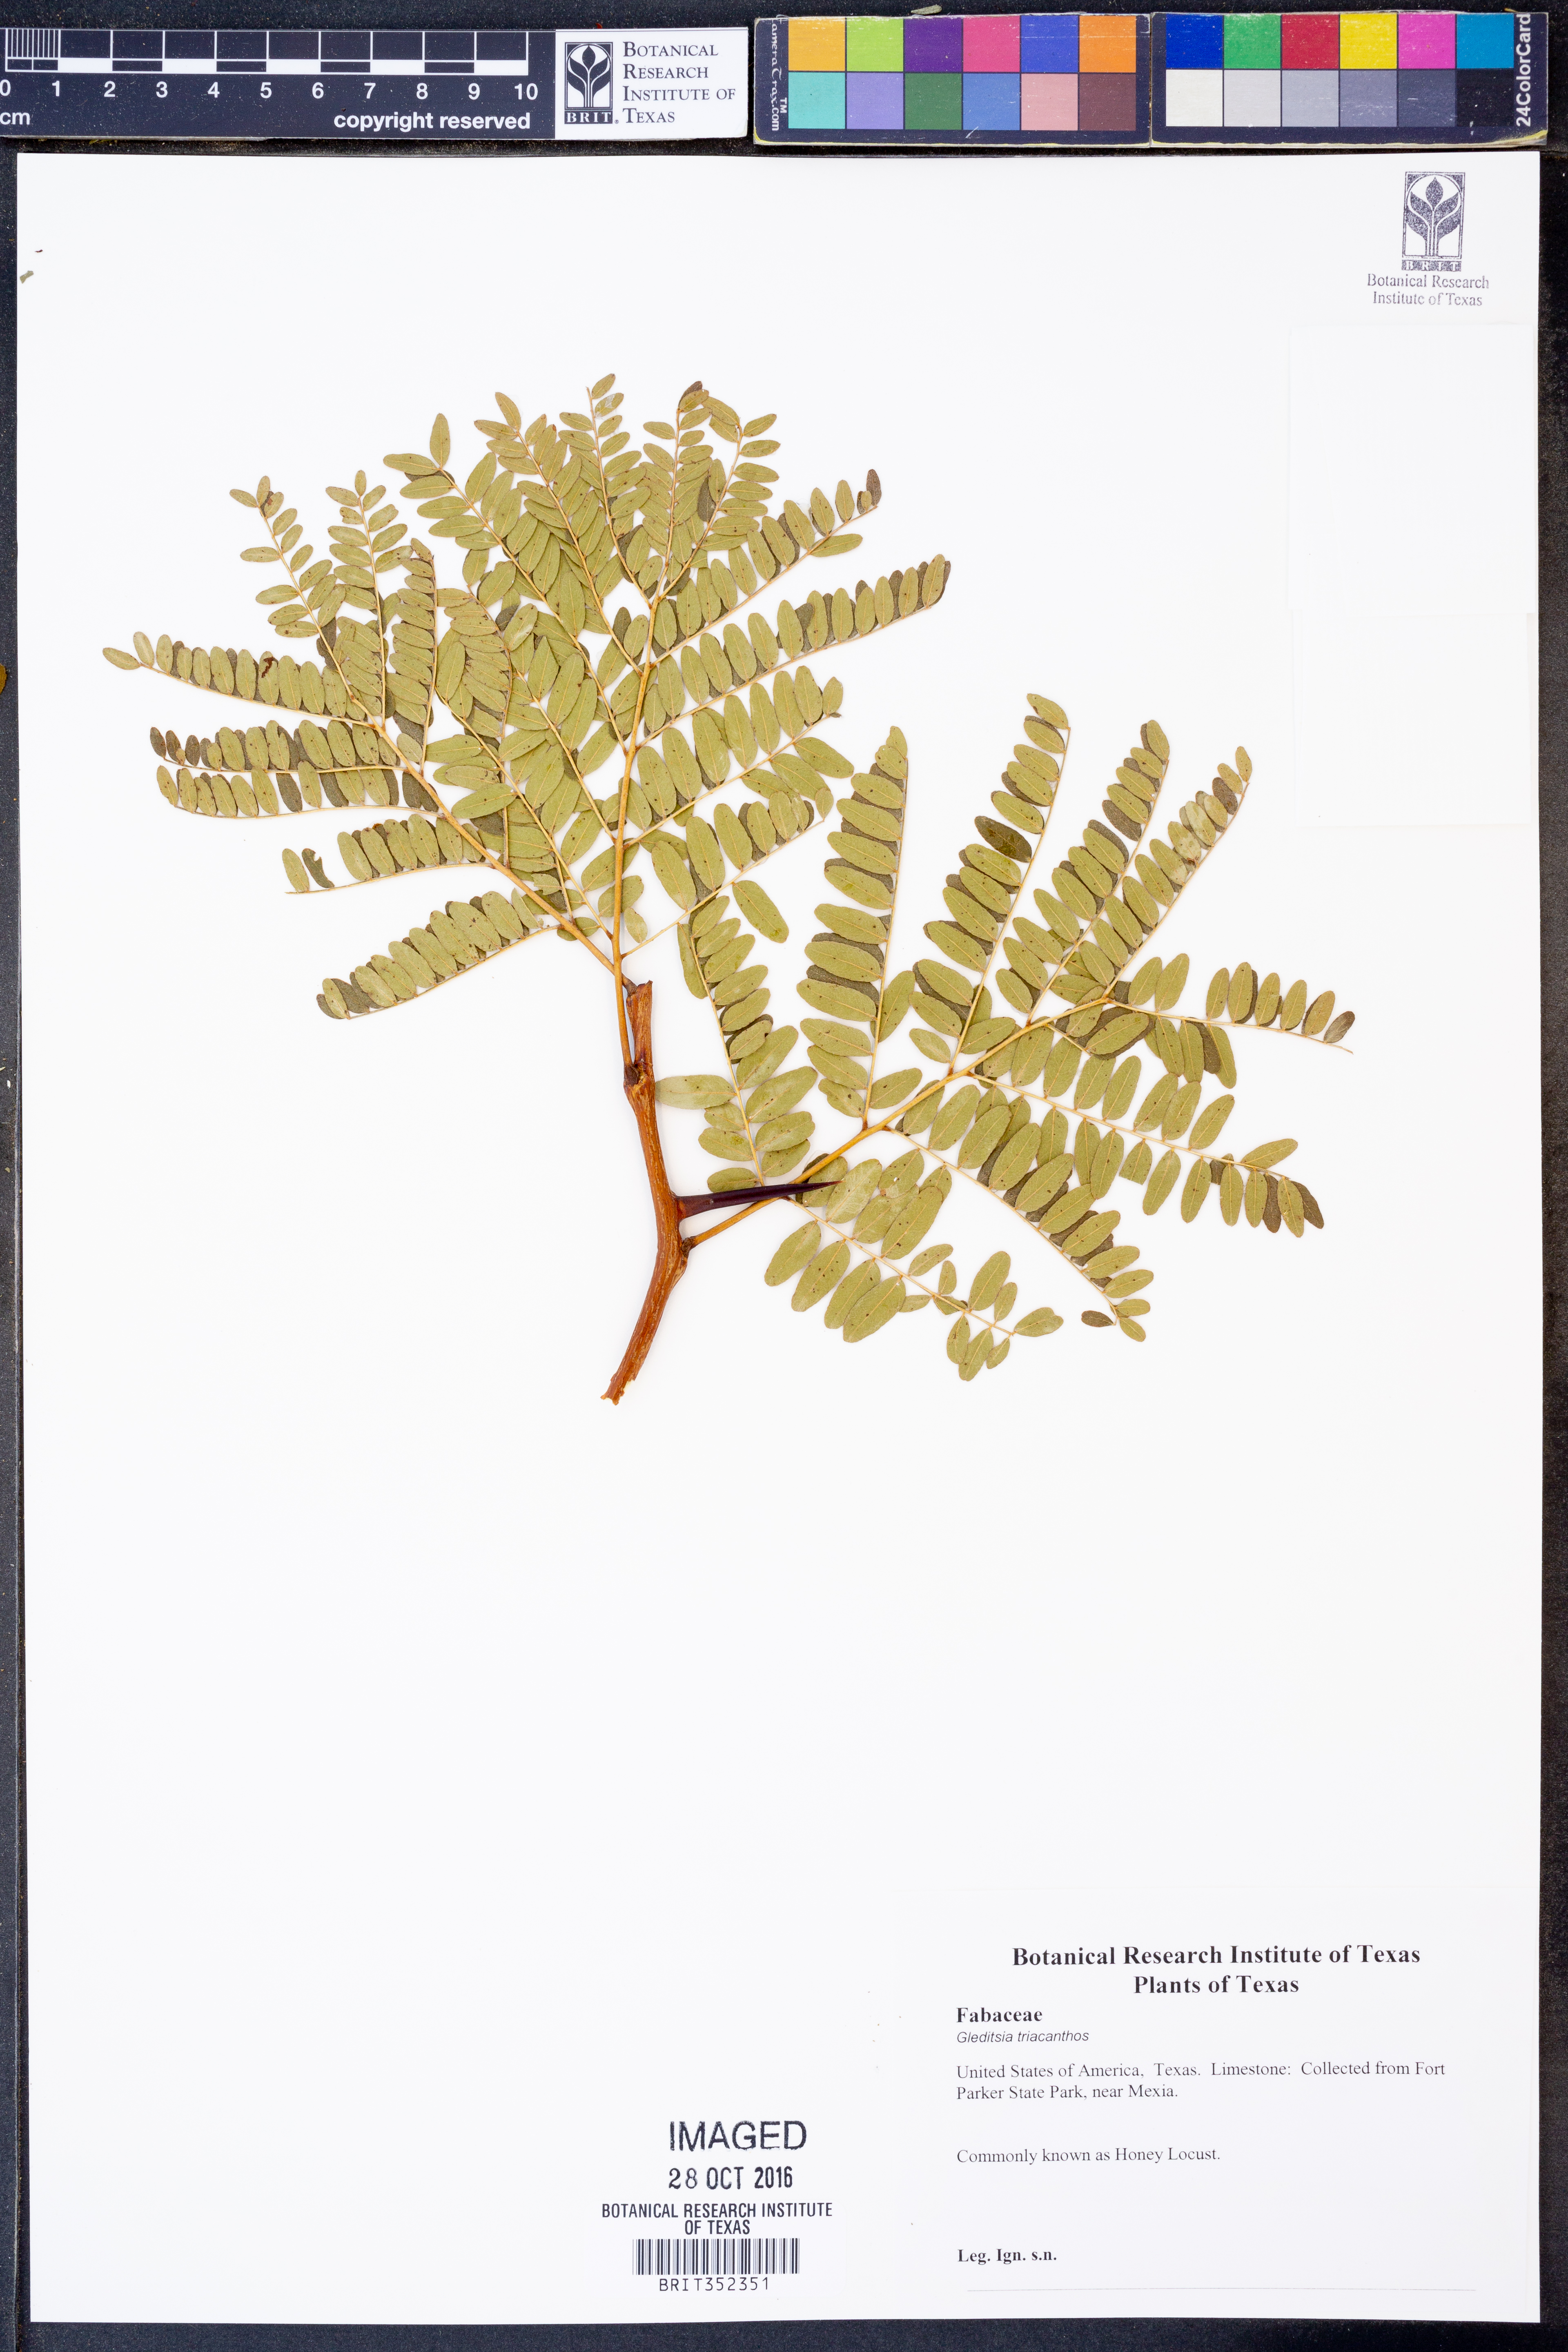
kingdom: Plantae
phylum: Tracheophyta
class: Magnoliopsida
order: Fabales
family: Fabaceae
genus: Gleditsia
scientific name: Gleditsia triacanthos
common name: Common honeylocust
